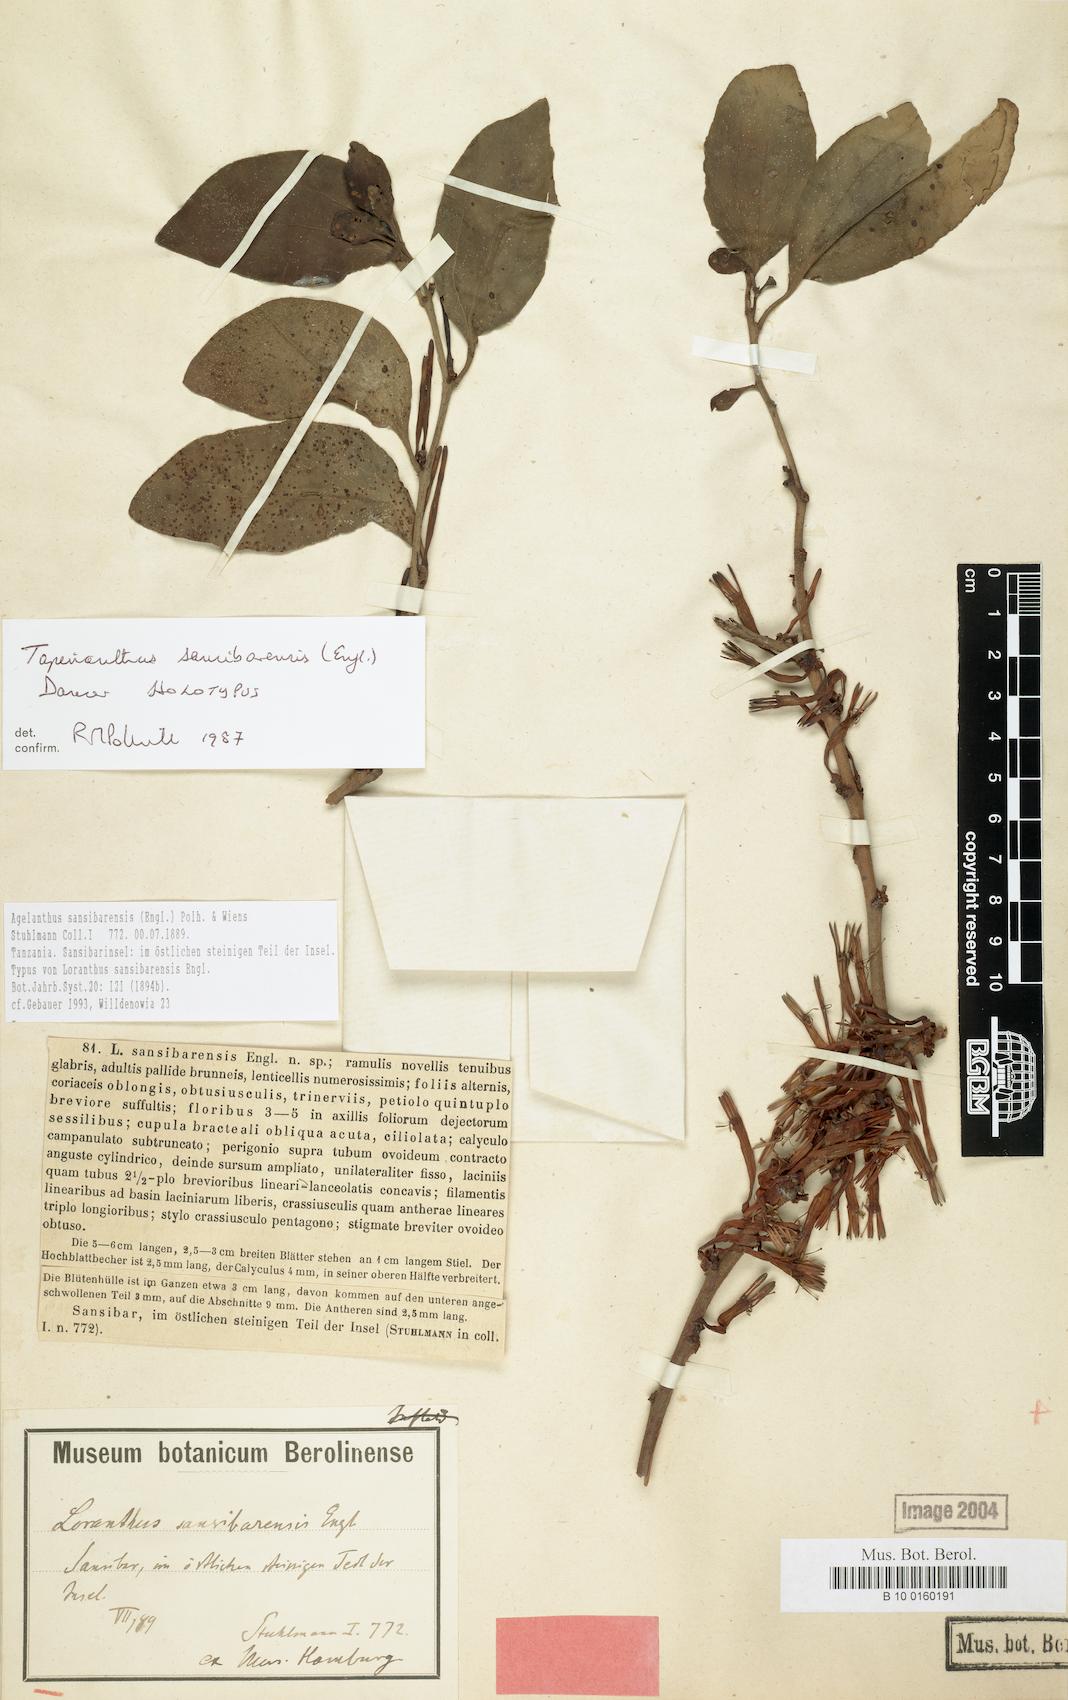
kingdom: Plantae
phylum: Tracheophyta
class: Magnoliopsida
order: Santalales
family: Loranthaceae
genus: Agelanthus
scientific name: Agelanthus sansibarensis
